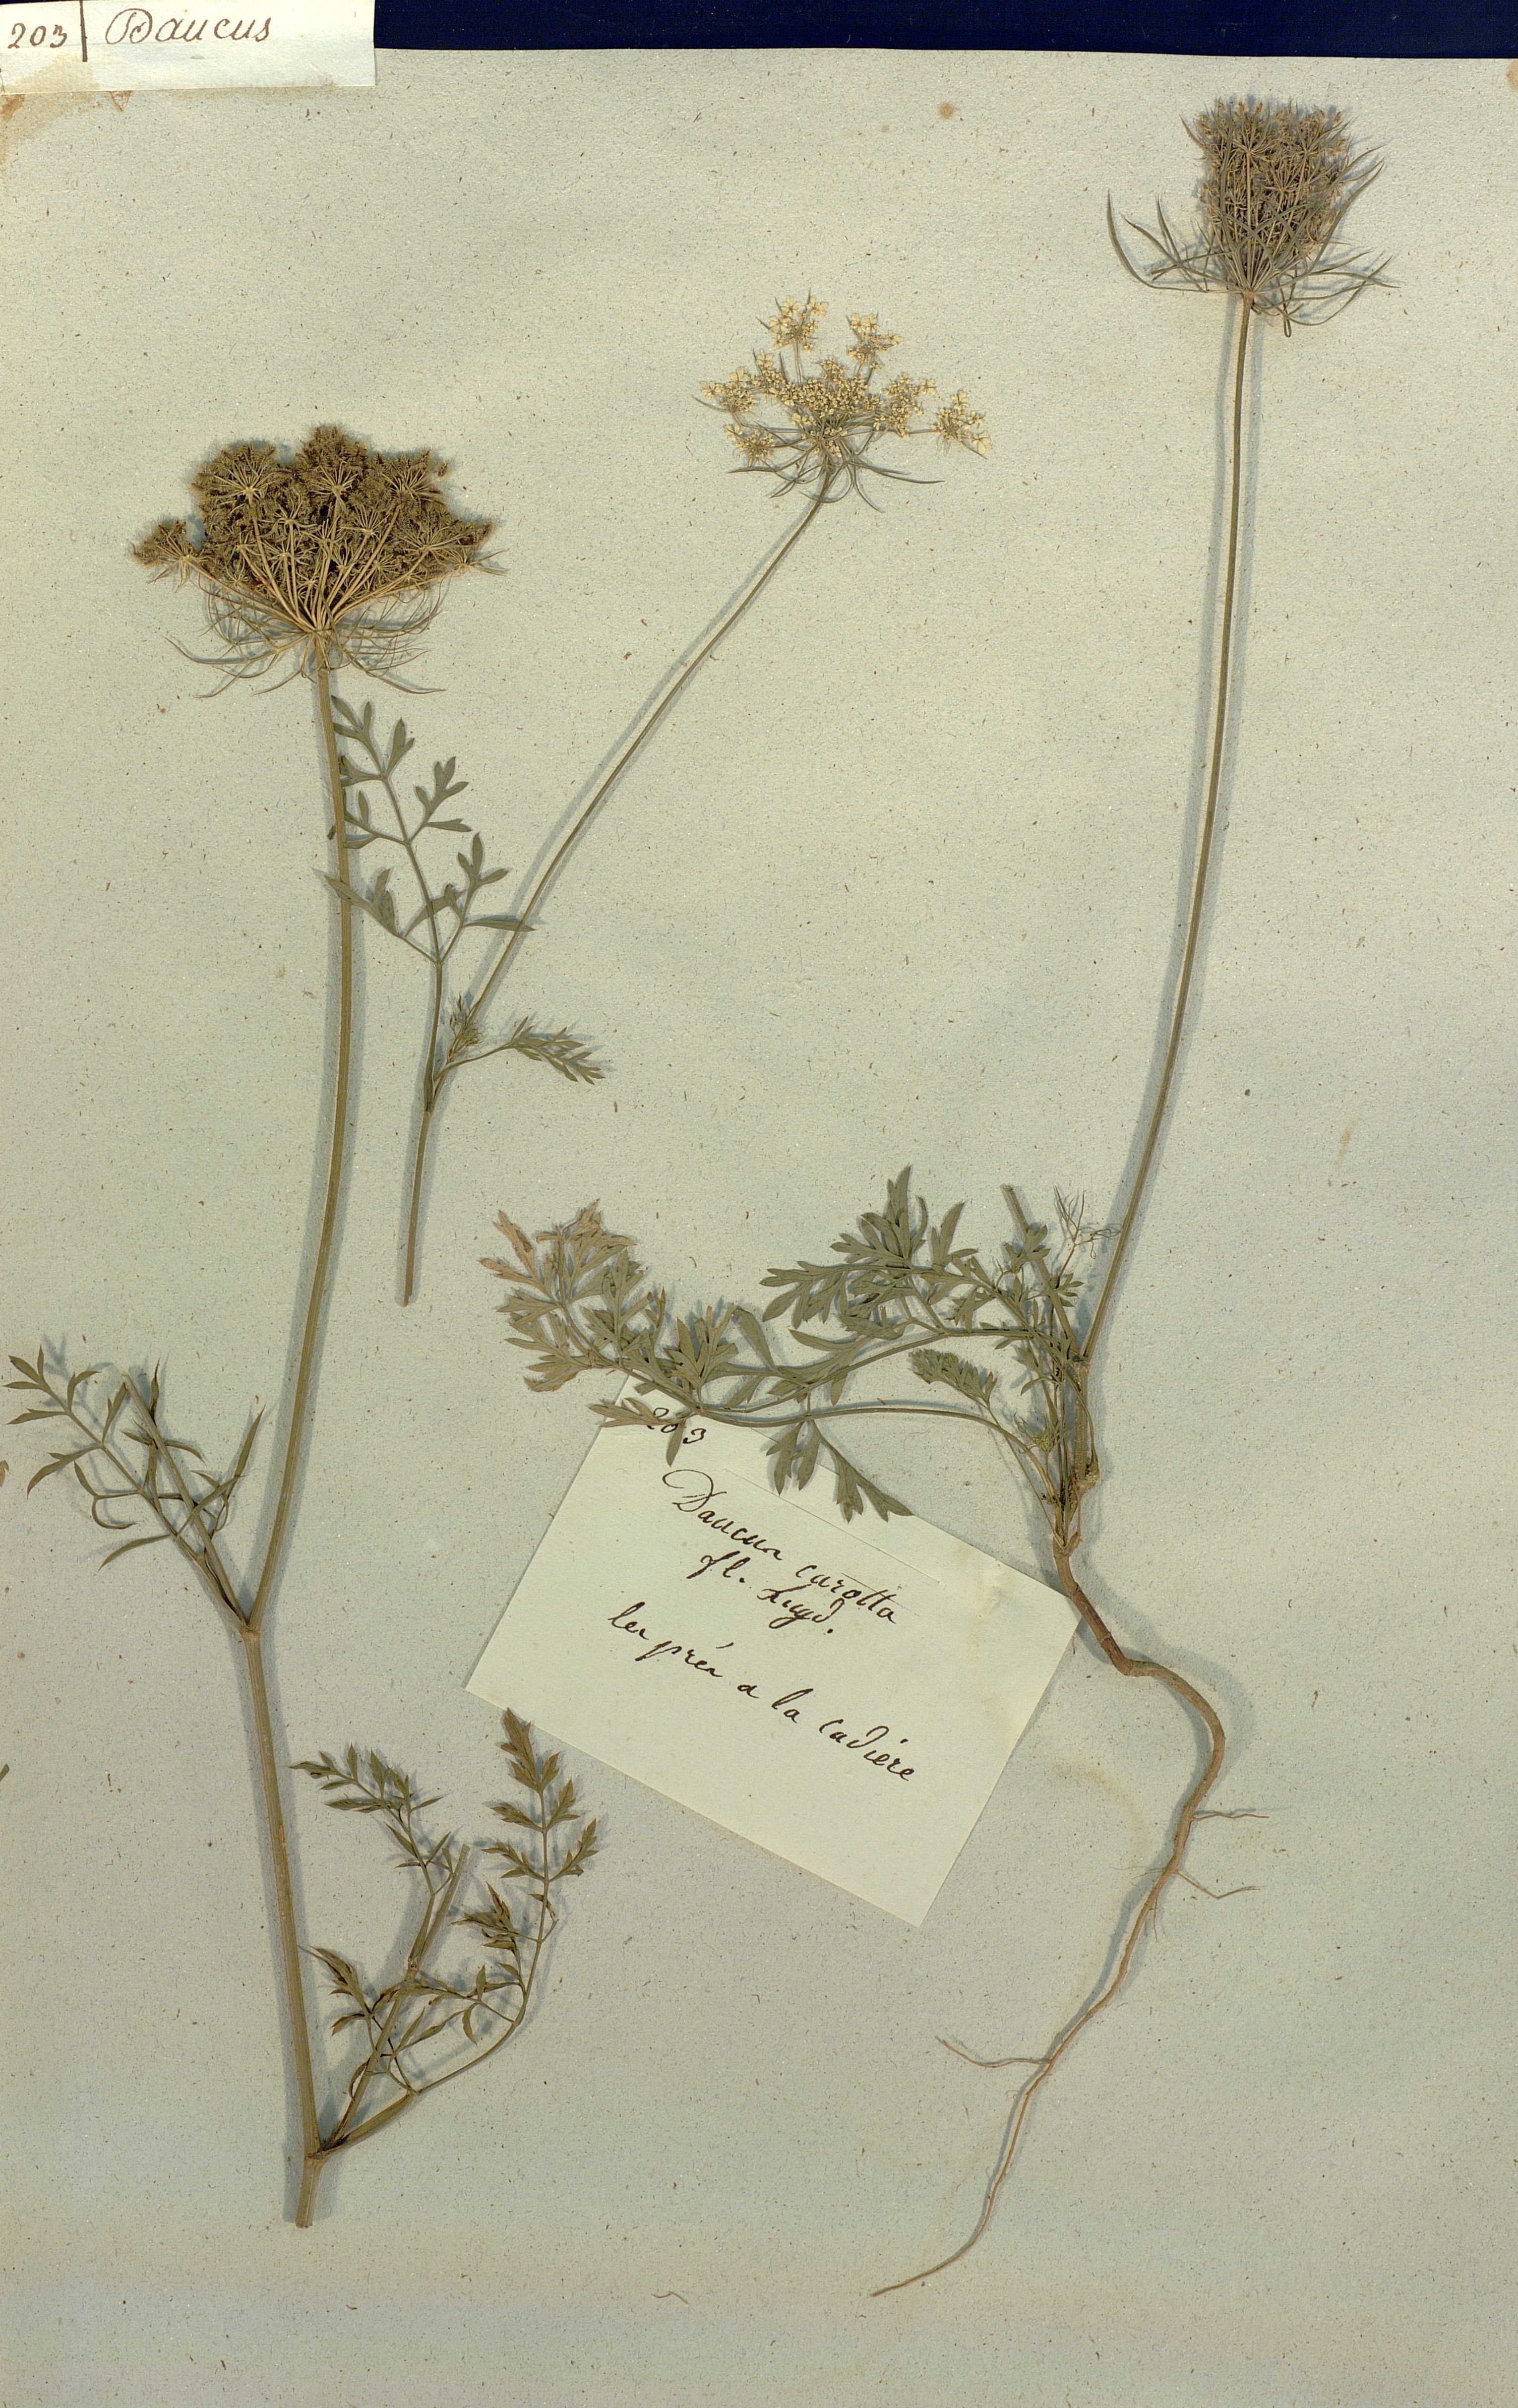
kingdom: Plantae
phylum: Tracheophyta
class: Magnoliopsida
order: Apiales
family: Apiaceae
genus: Daucus
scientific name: Daucus carota
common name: Wild carrot
